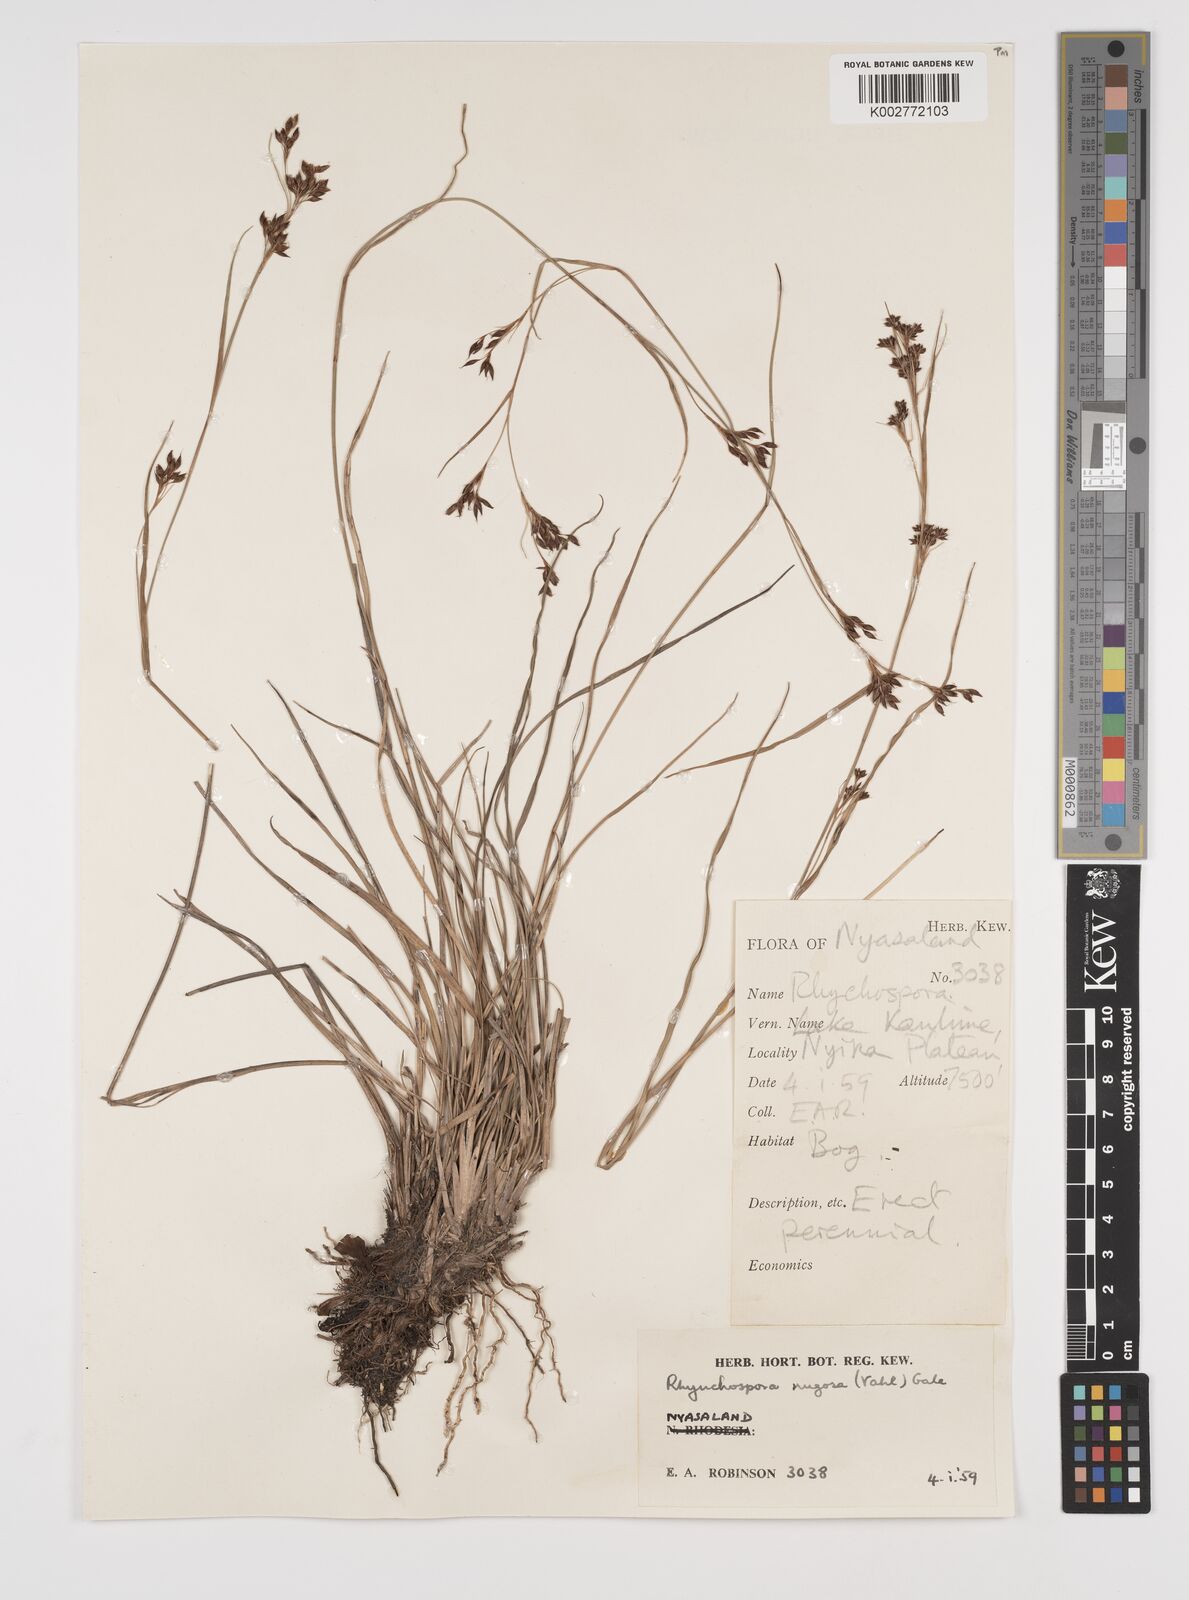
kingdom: Plantae
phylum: Tracheophyta
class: Liliopsida
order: Poales
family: Cyperaceae
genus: Rhynchospora
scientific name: Rhynchospora rugosa
